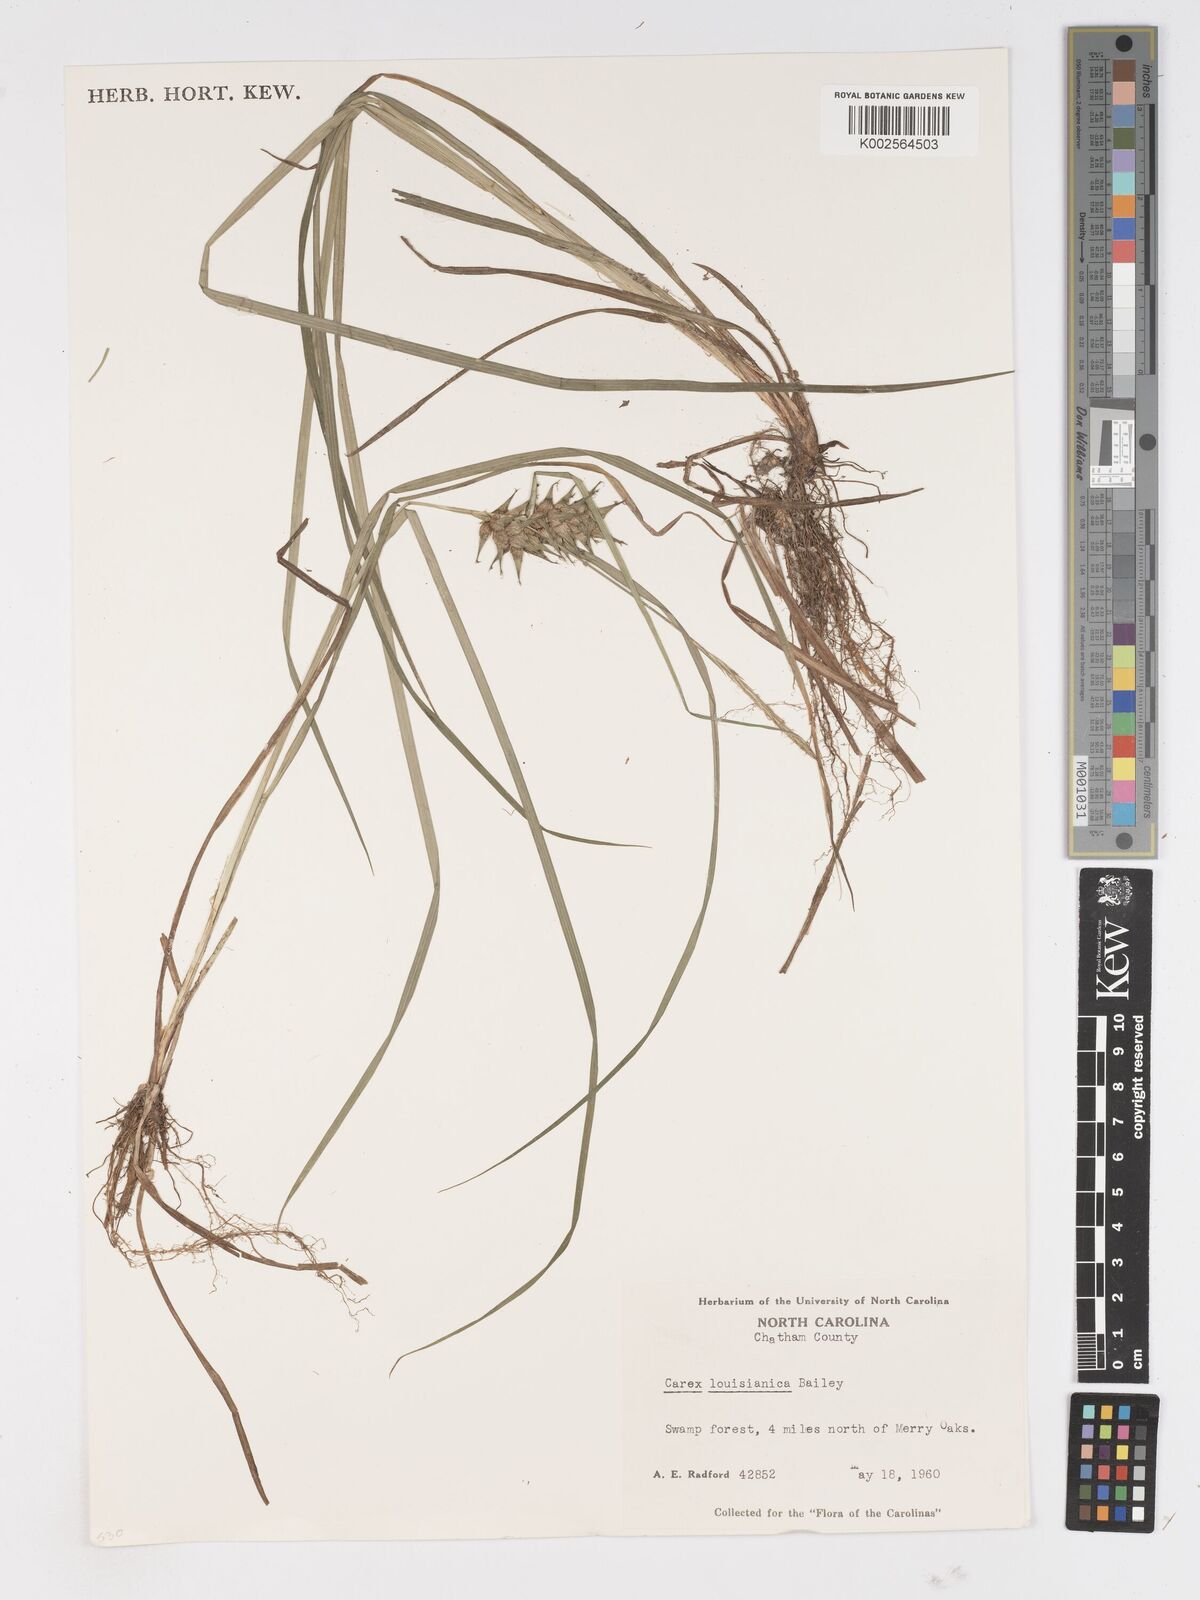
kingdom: Plantae
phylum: Tracheophyta
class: Liliopsida
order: Poales
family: Cyperaceae
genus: Carex
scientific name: Carex louisianica
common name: Louisiana sedge
